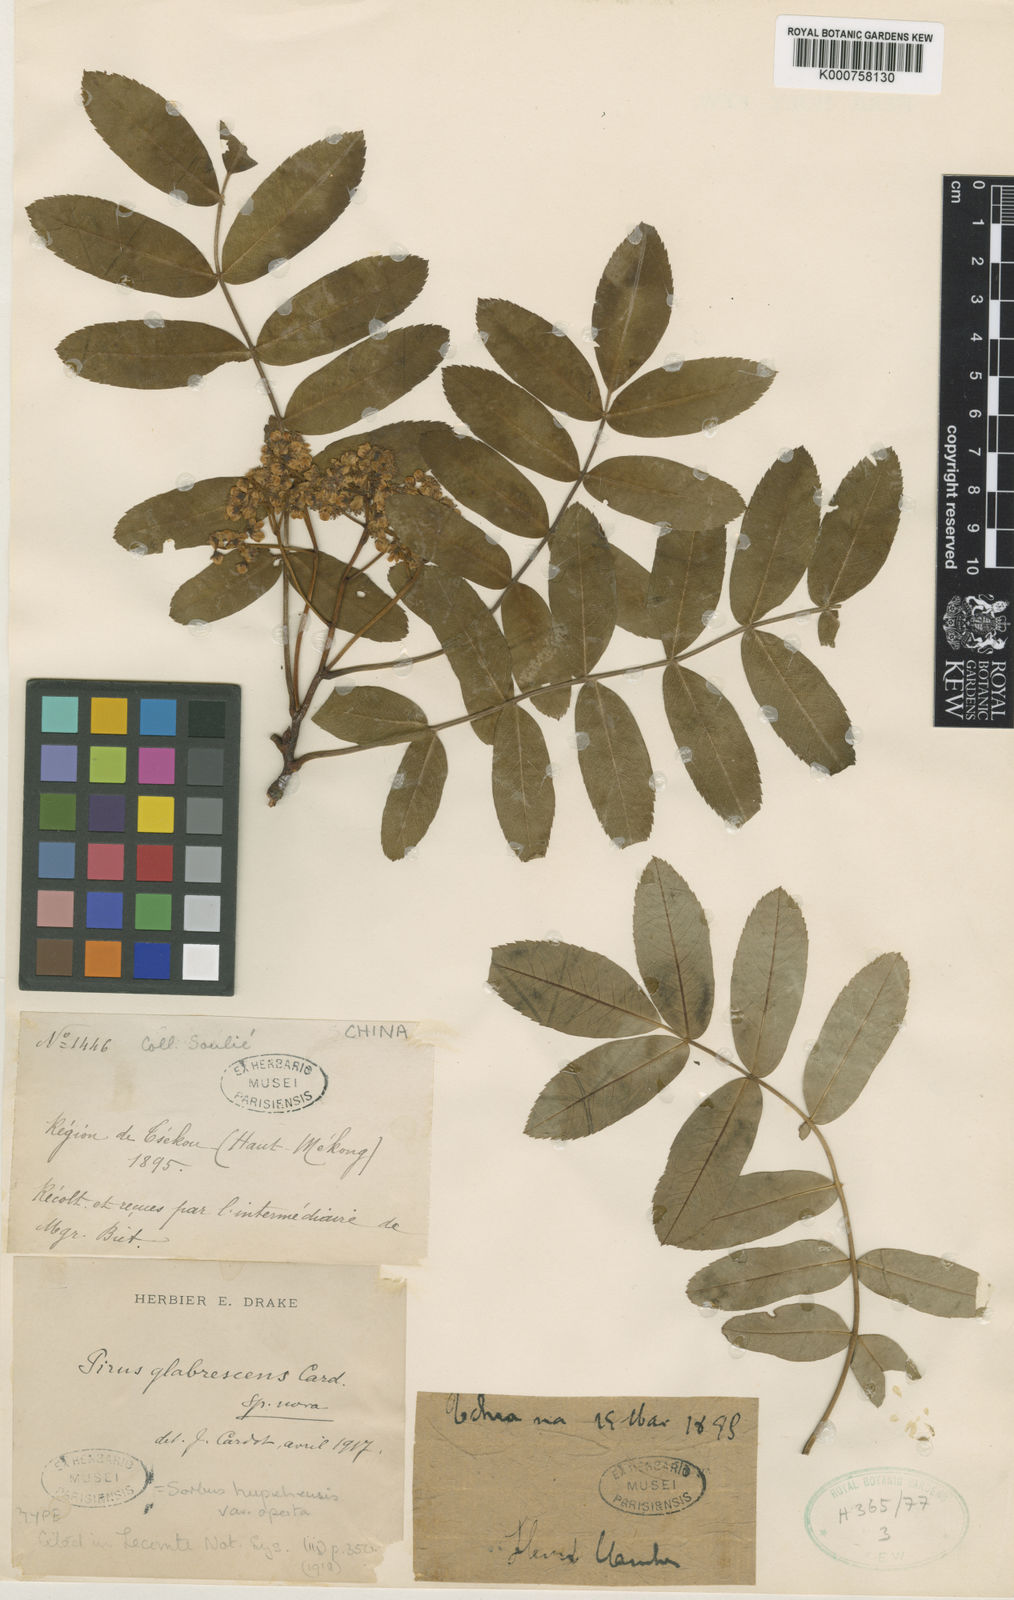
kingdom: Plantae
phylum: Tracheophyta
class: Magnoliopsida
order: Rosales
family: Rosaceae
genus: Sorbus
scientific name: Sorbus hupehensis
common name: Hupeh rowan
